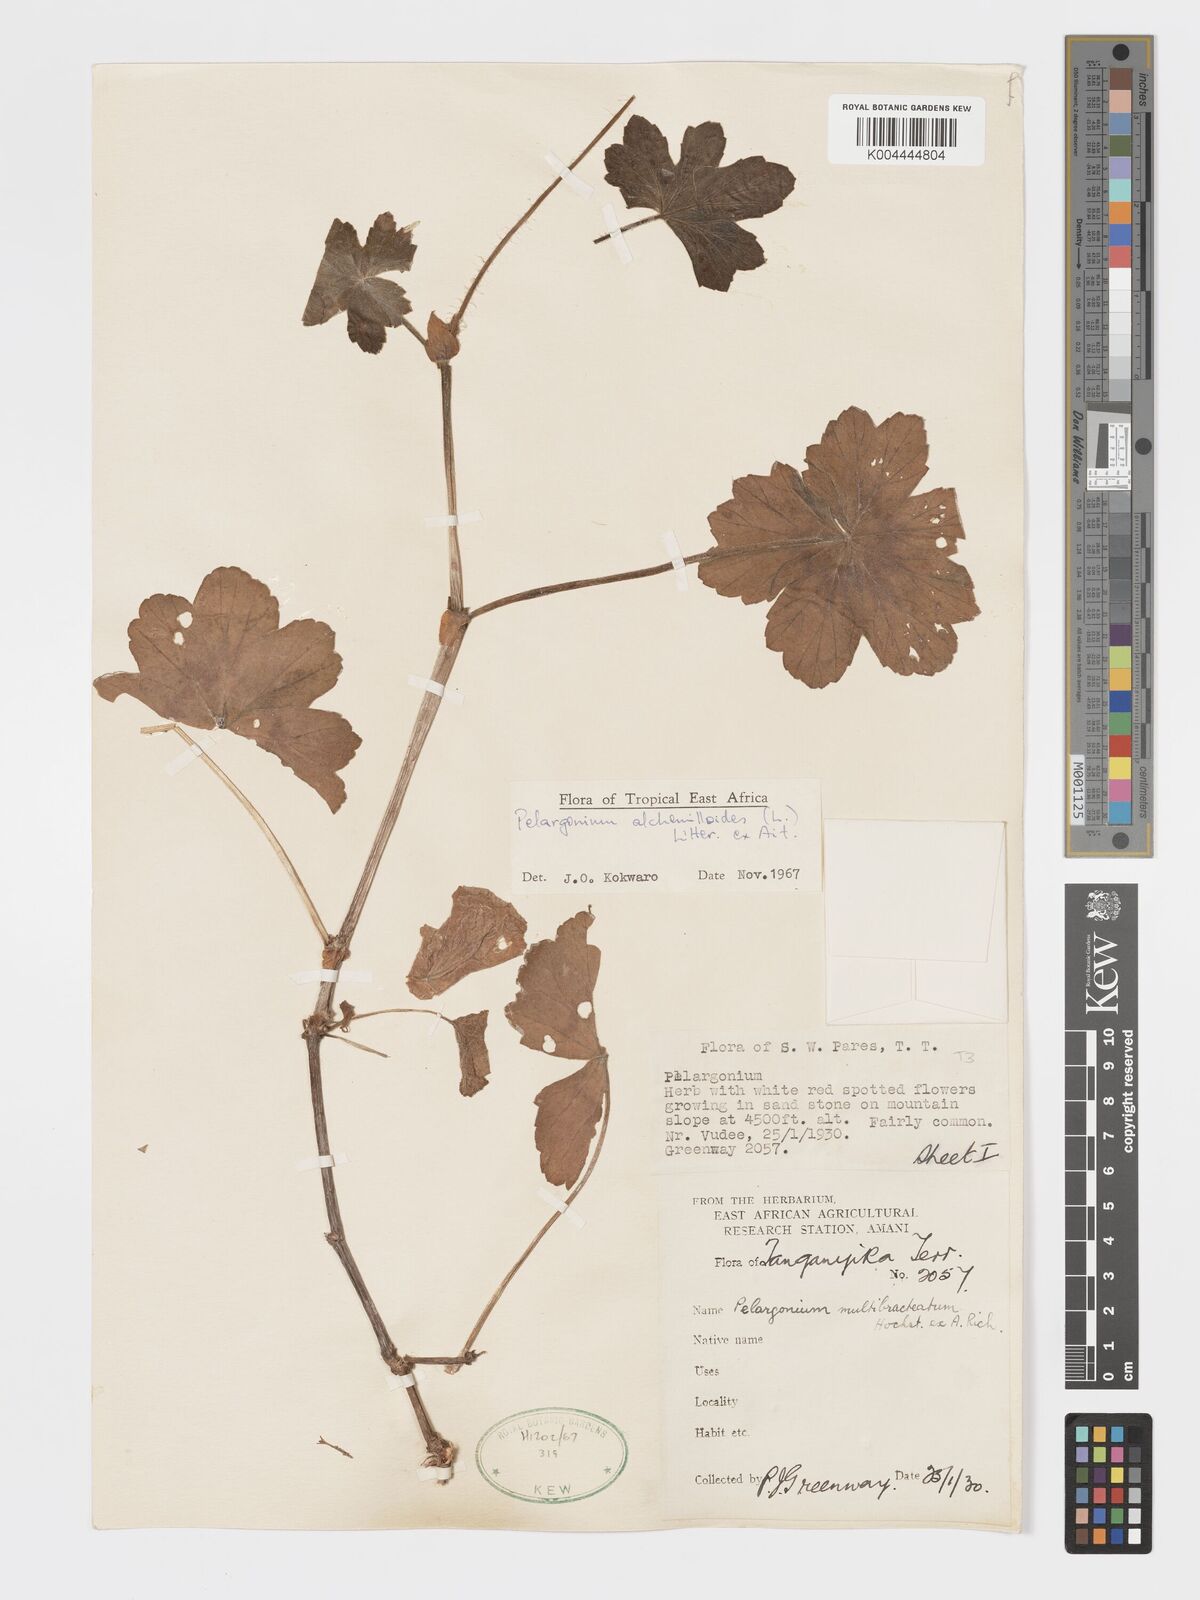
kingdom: Plantae
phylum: Tracheophyta
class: Magnoliopsida
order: Geraniales
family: Geraniaceae
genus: Pelargonium
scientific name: Pelargonium alchemilloides
